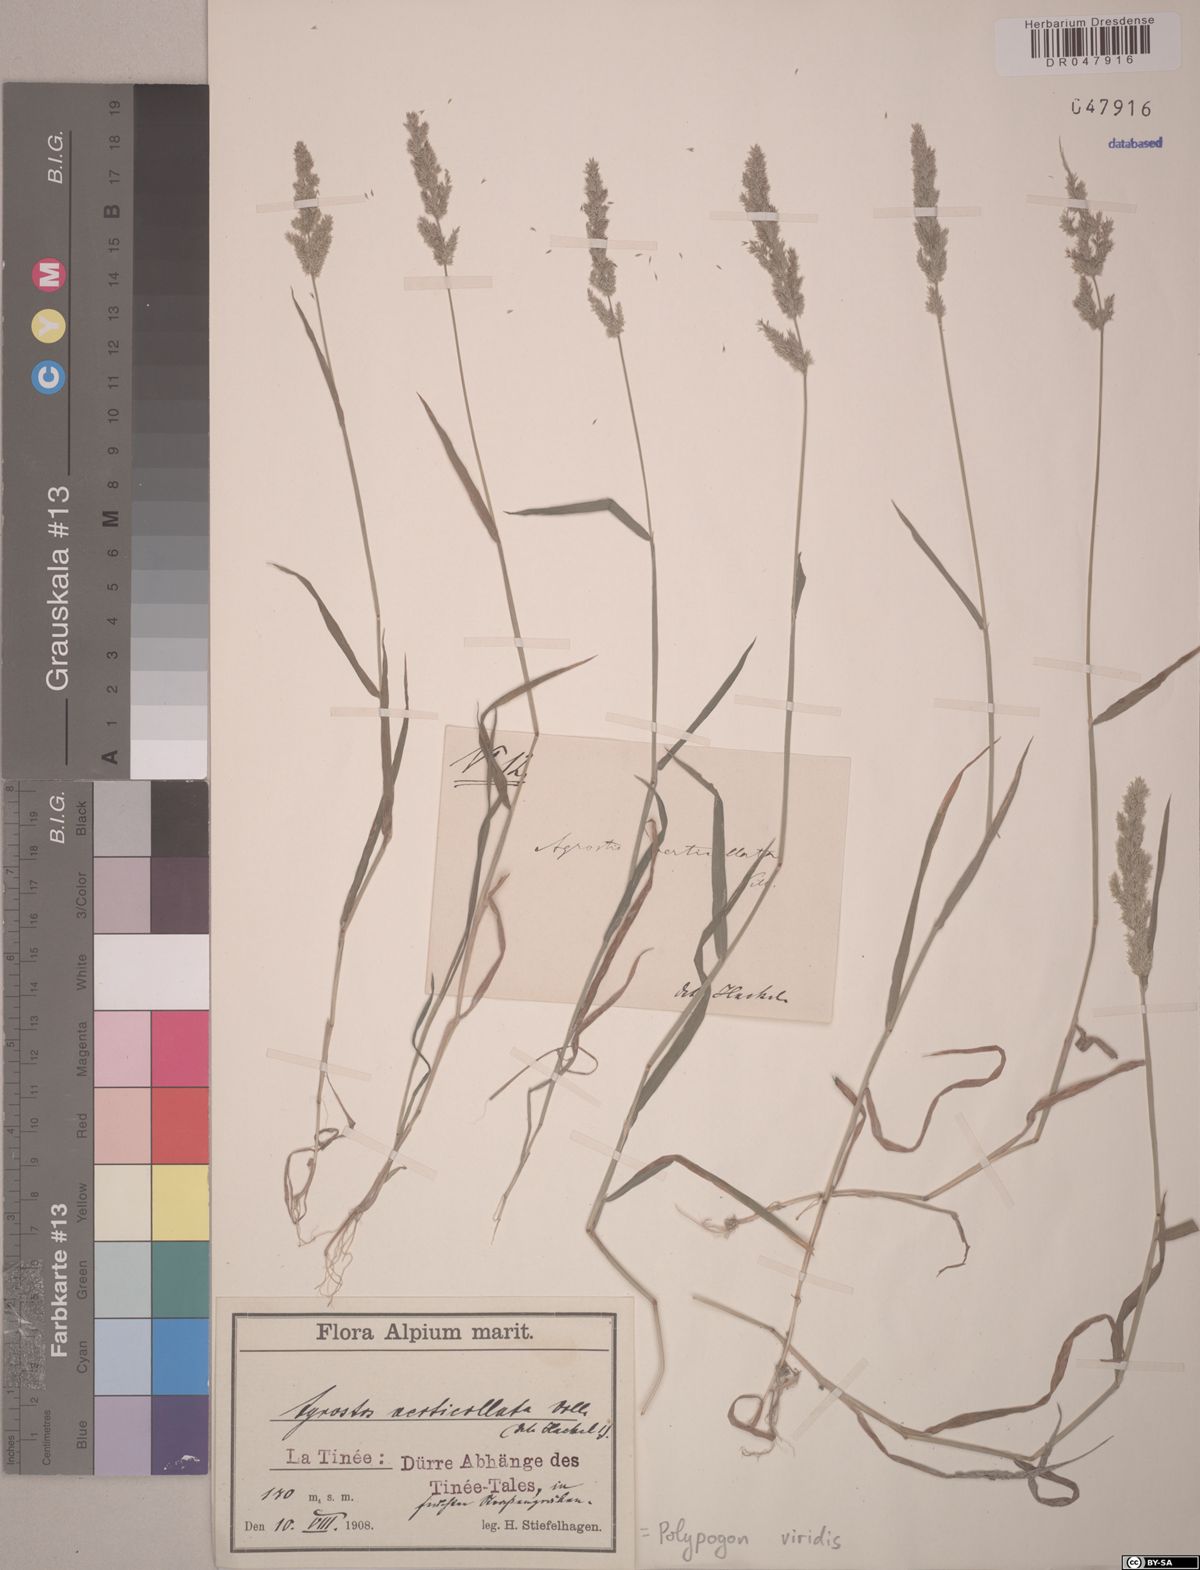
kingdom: Plantae
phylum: Tracheophyta
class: Liliopsida
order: Poales
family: Poaceae
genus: Polypogon
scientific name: Polypogon viridis
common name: Water bent
